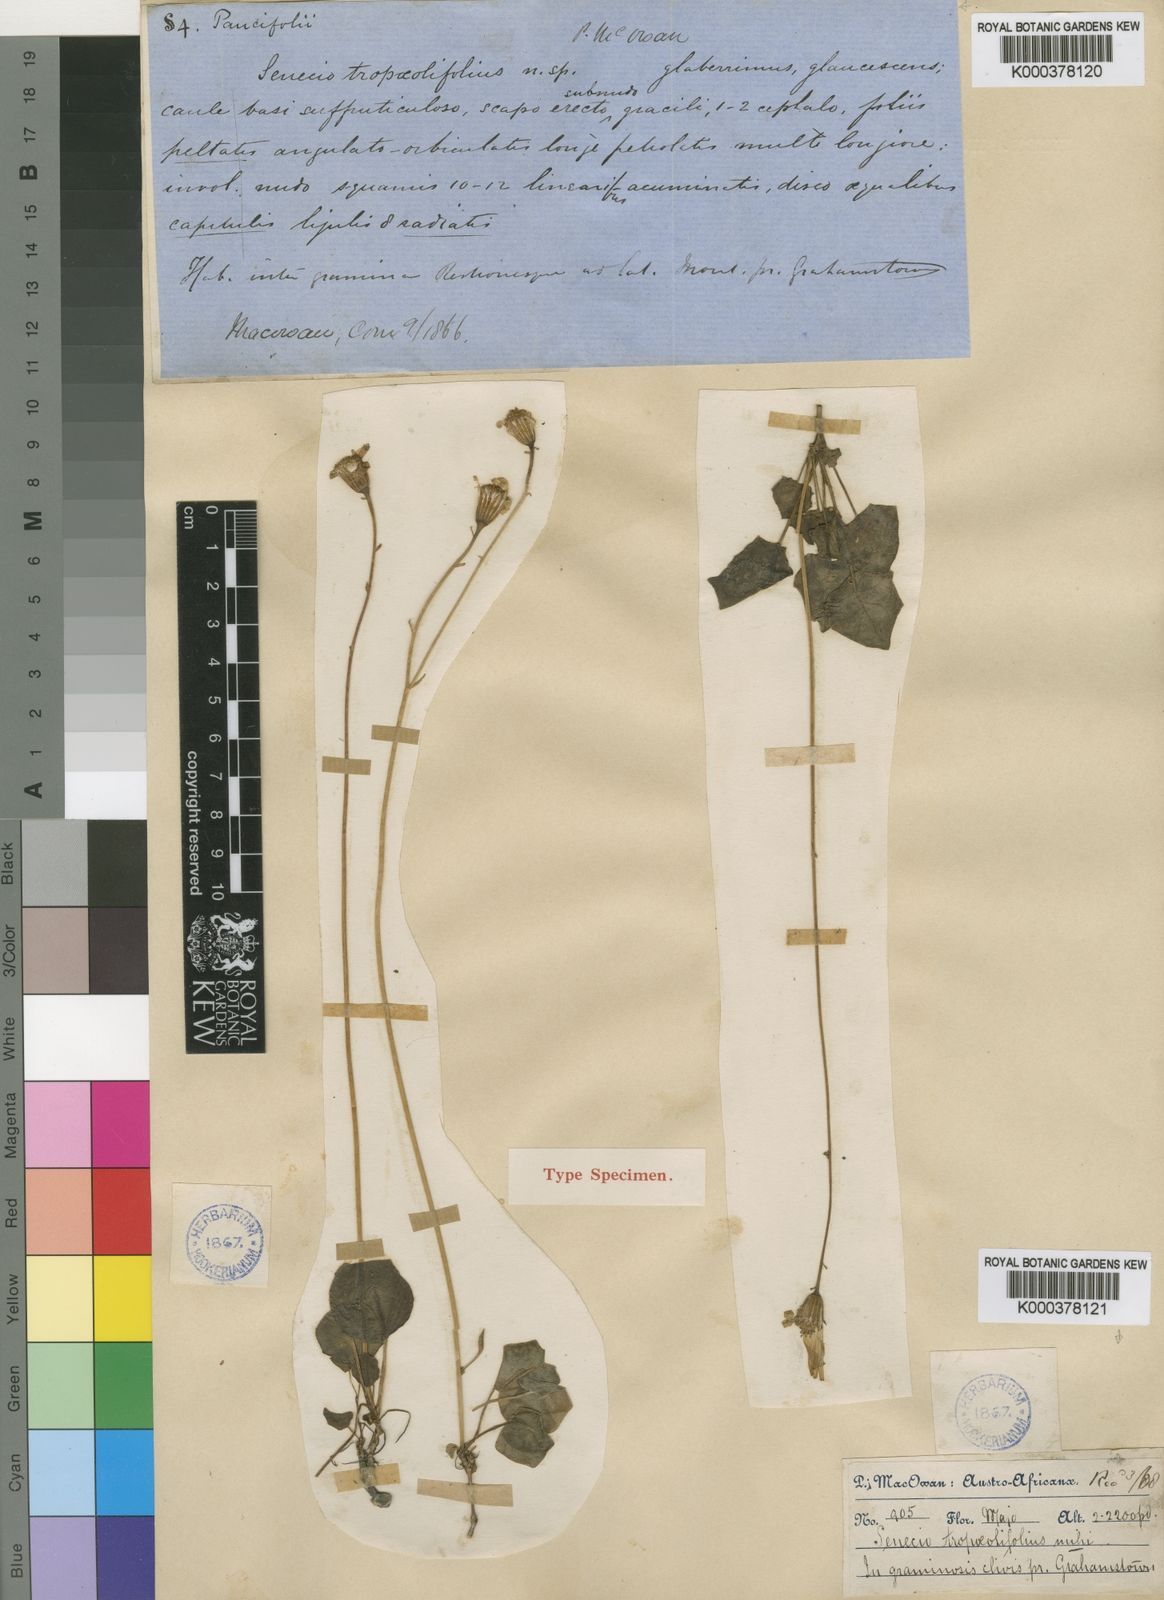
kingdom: Plantae
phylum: Tracheophyta
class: Magnoliopsida
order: Asterales
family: Asteraceae
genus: Senecio
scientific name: Senecio
